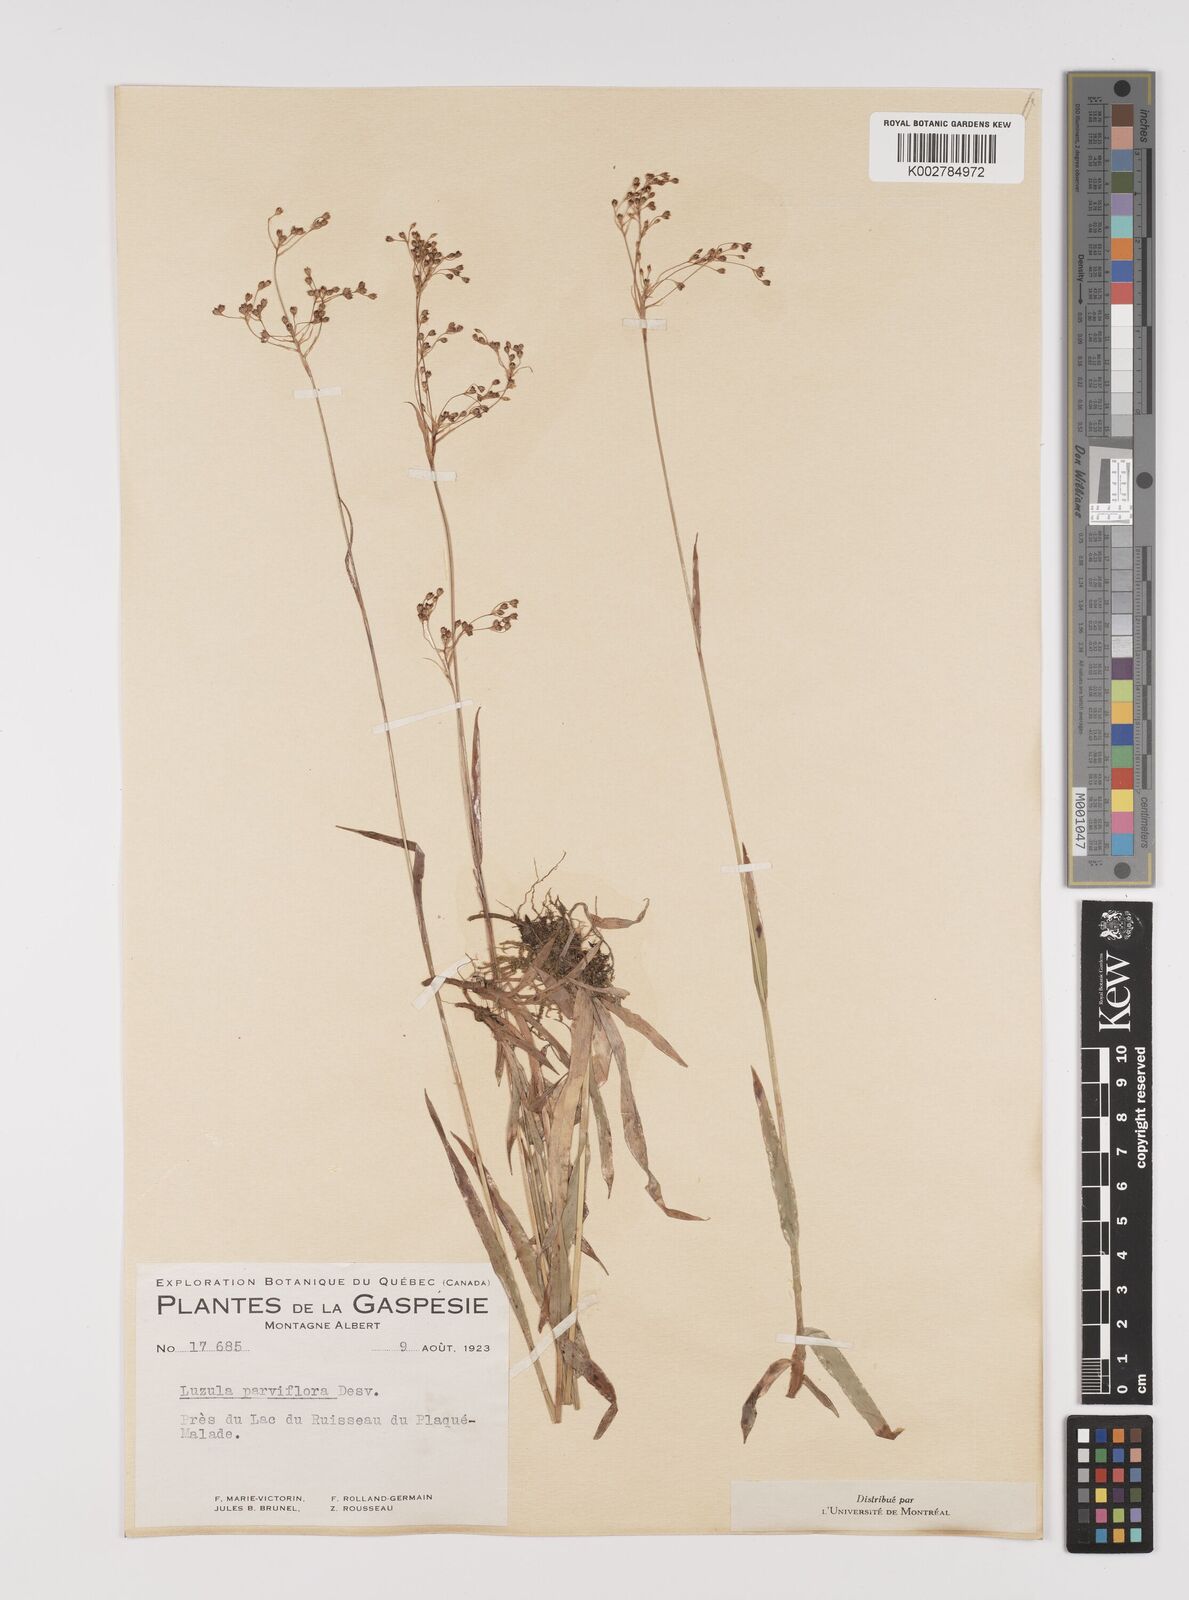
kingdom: Plantae
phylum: Tracheophyta
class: Liliopsida
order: Poales
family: Juncaceae
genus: Luzula
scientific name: Luzula parviflora
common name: Millet woodrush
